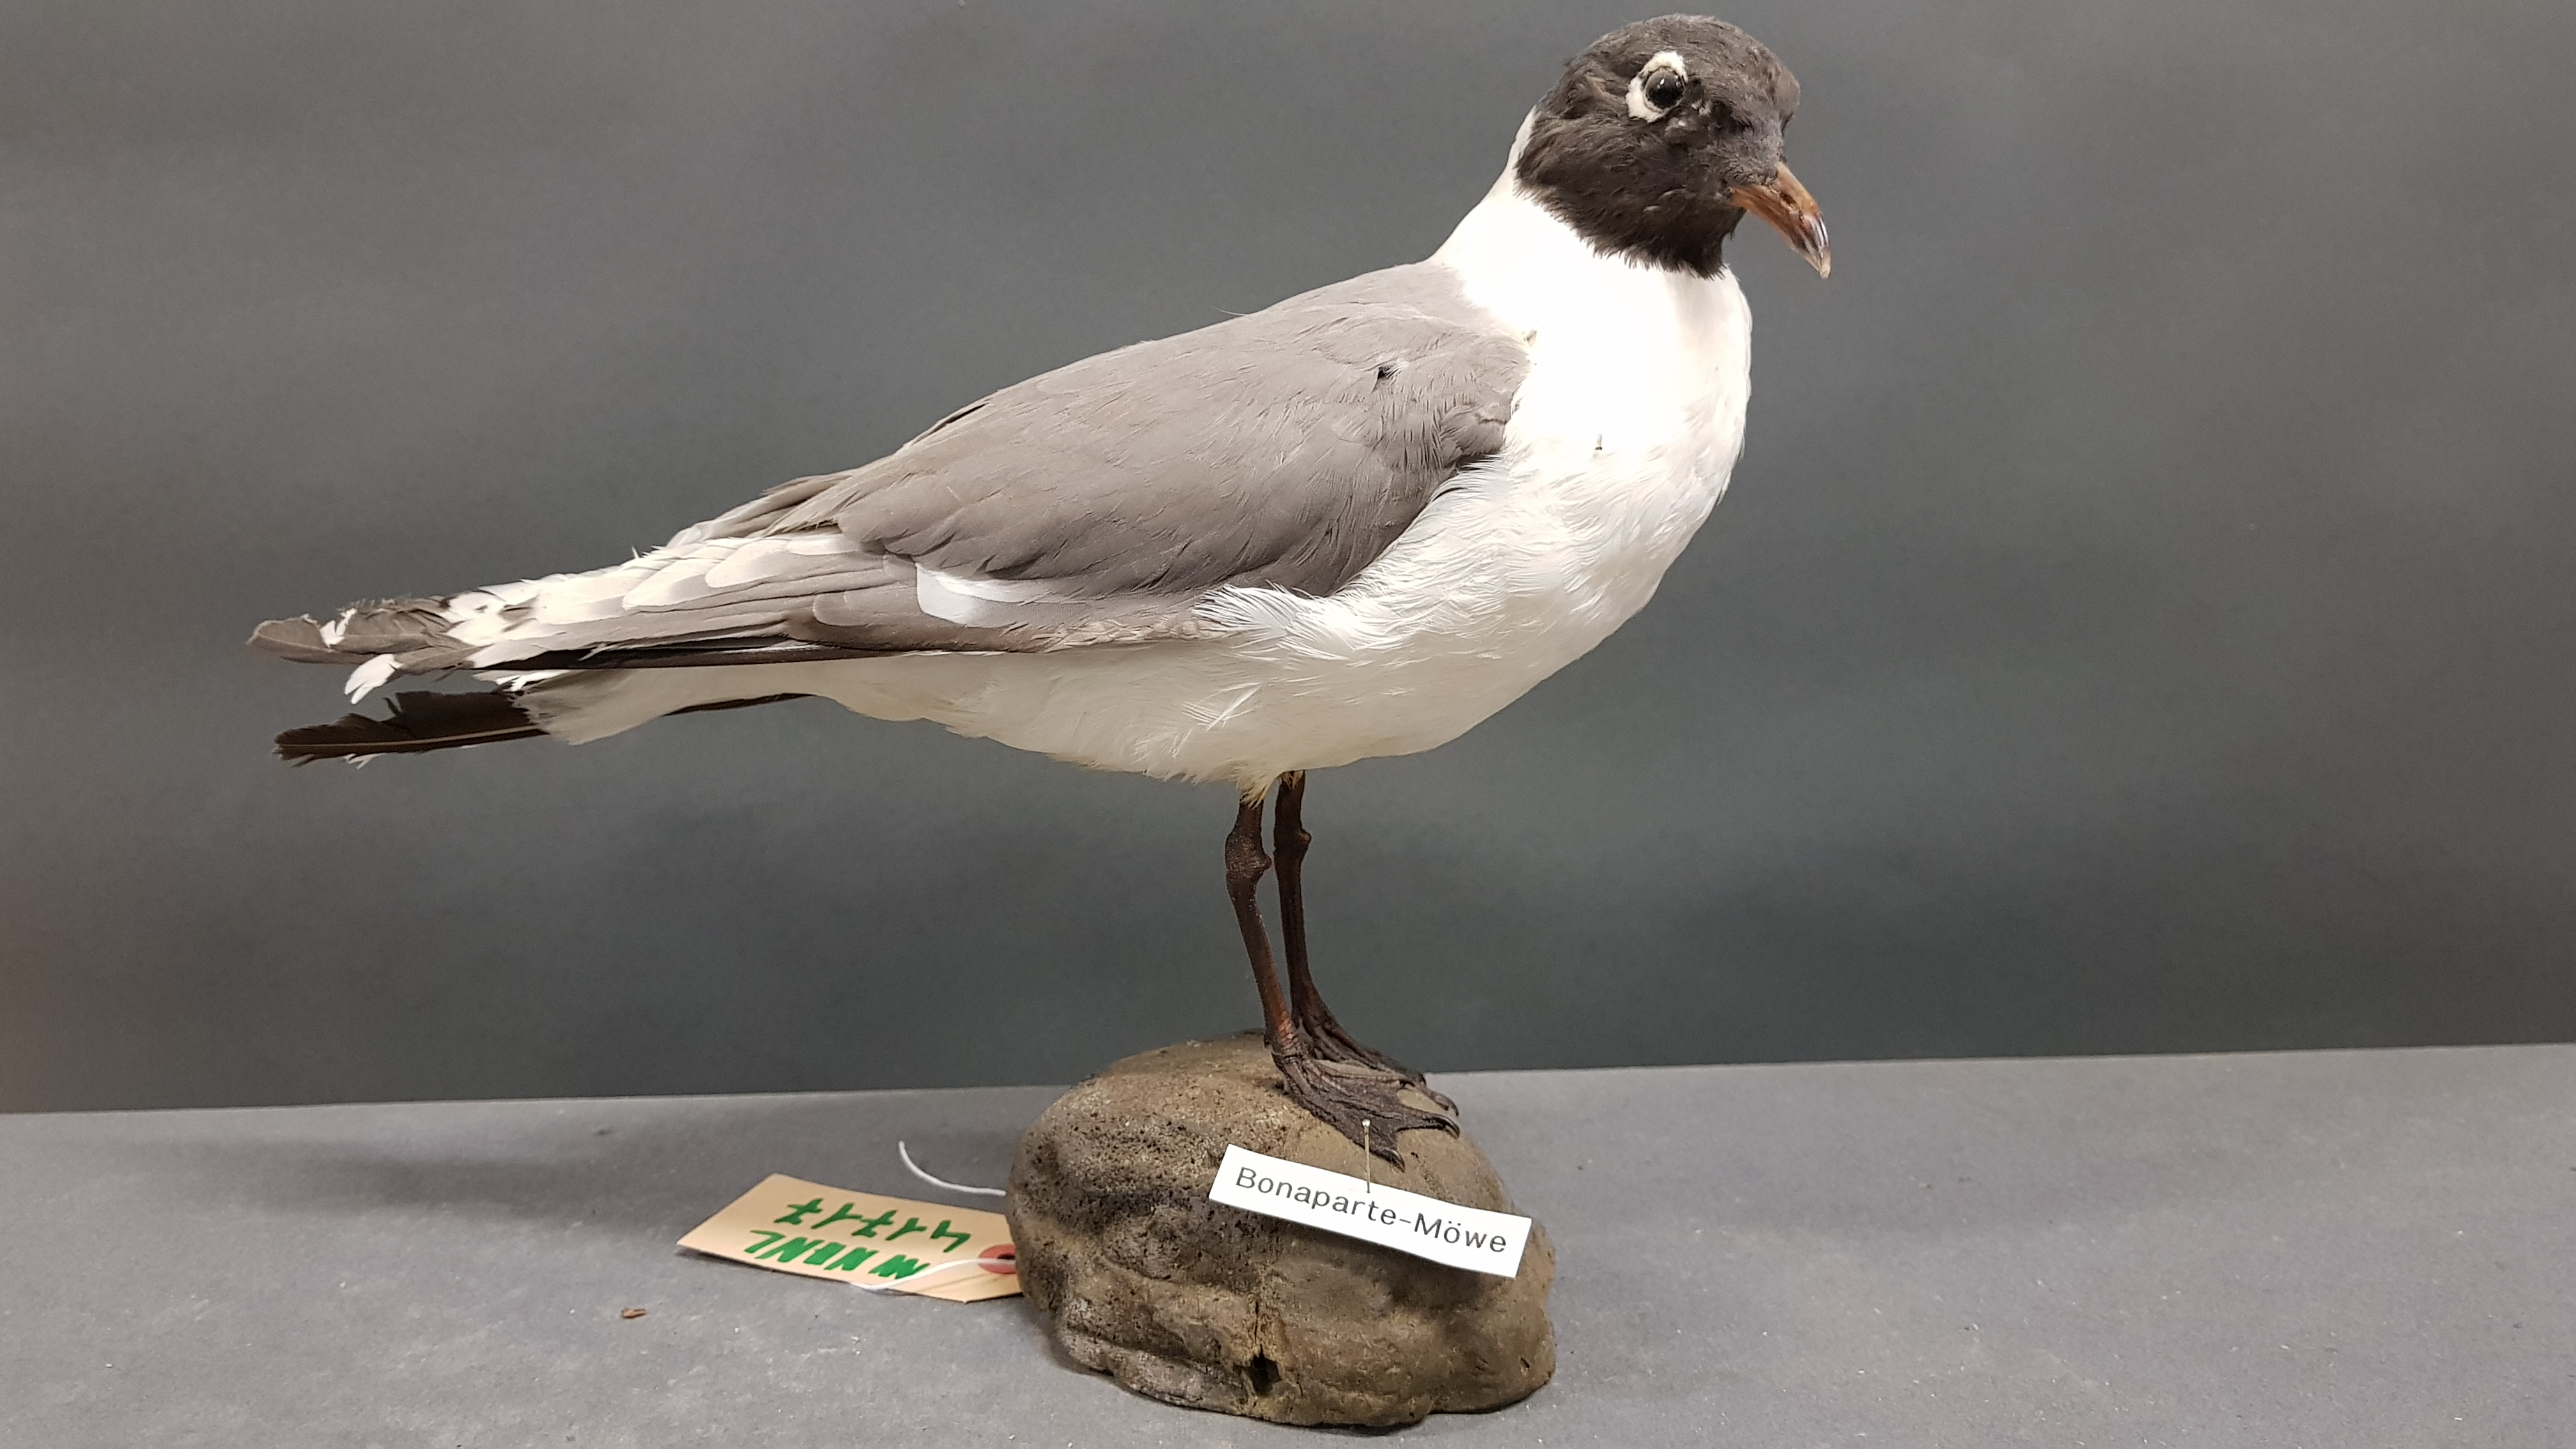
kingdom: Animalia
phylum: Chordata
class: Aves
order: Charadriiformes
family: Laridae
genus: Chroicocephalus
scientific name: Chroicocephalus philadelphia
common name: Bonaparte's gull
